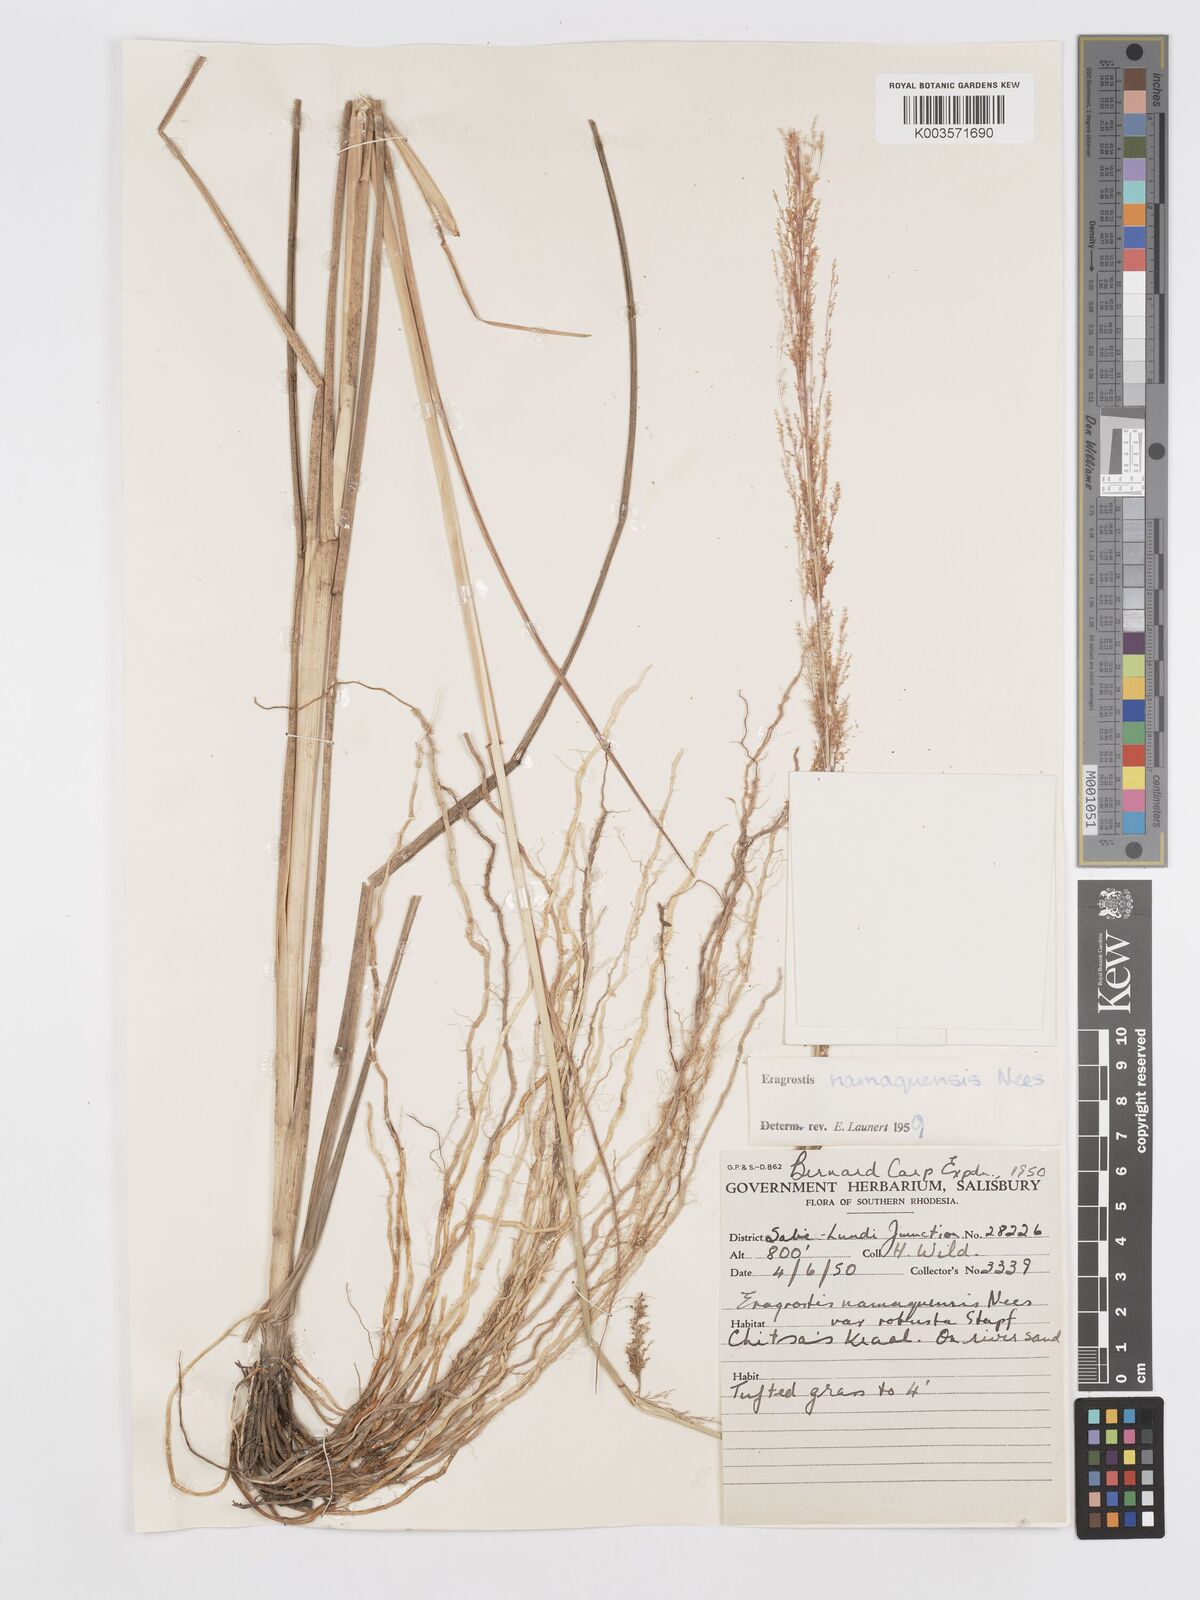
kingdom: Plantae
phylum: Tracheophyta
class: Liliopsida
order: Poales
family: Poaceae
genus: Eragrostis
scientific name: Eragrostis japonica
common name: Pond lovegrass
